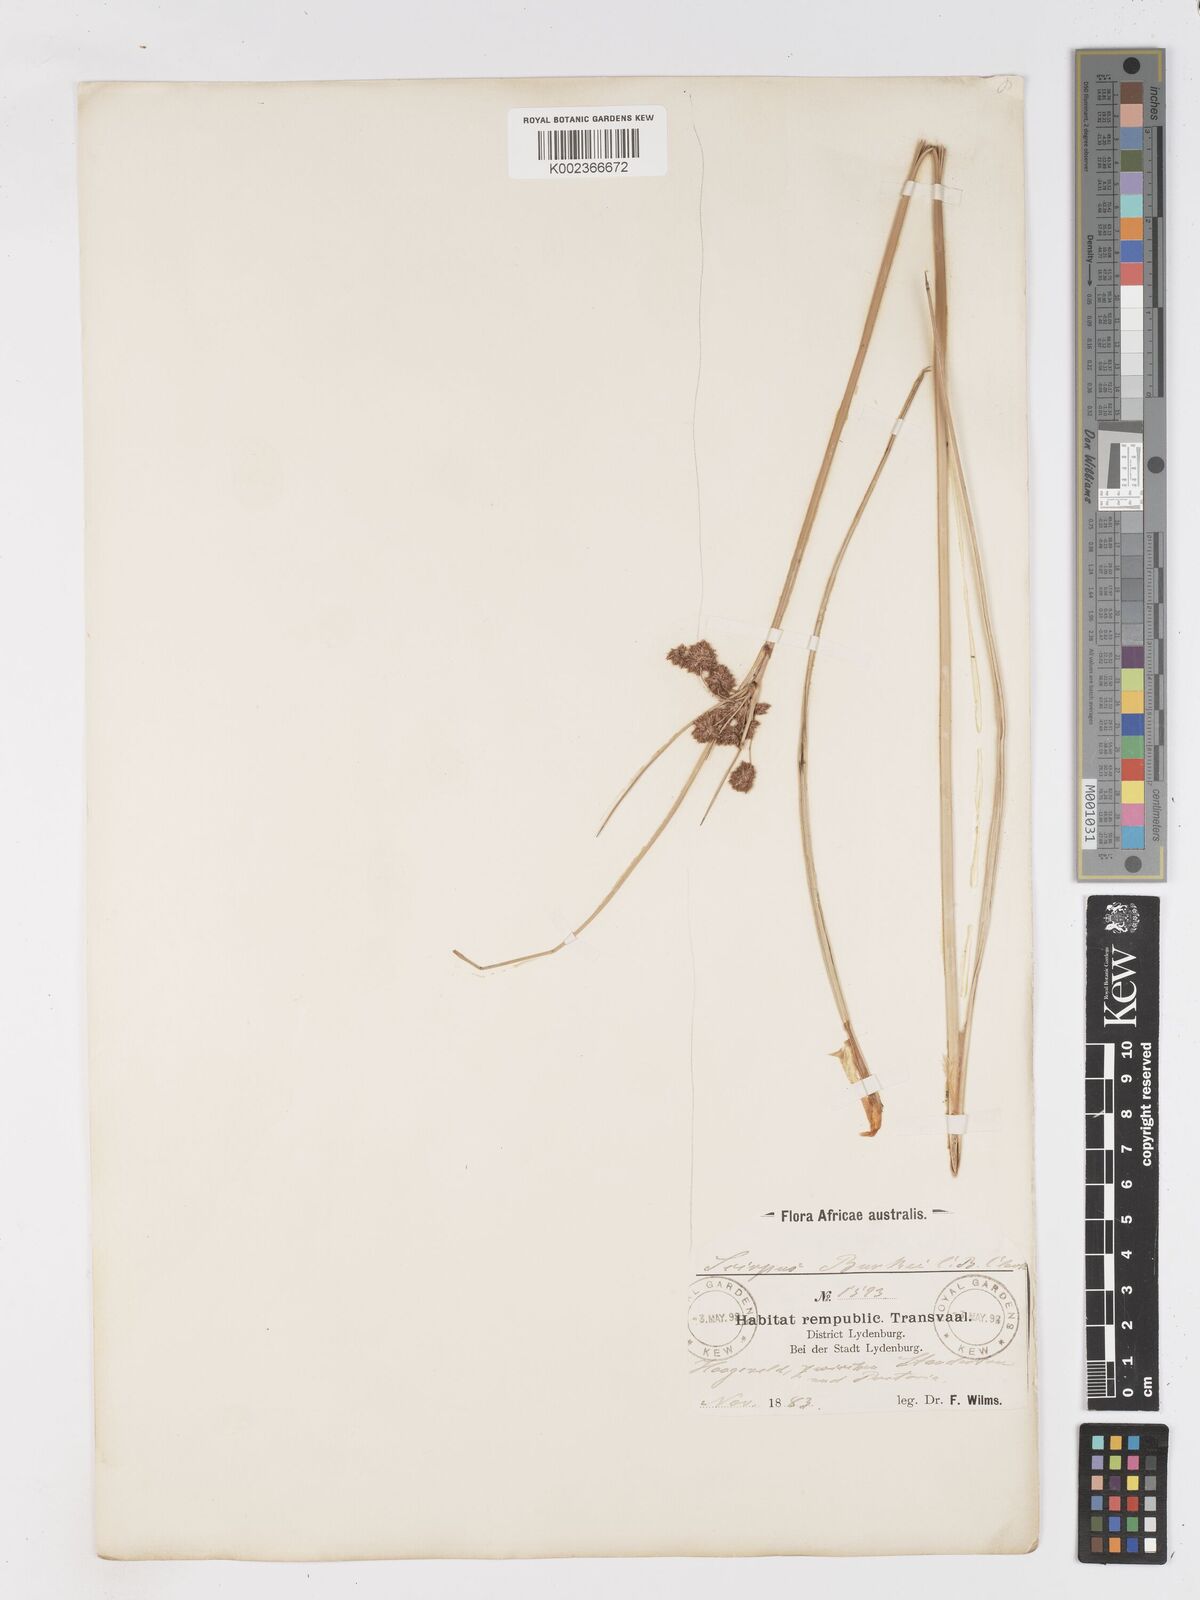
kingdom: Plantae
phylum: Tracheophyta
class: Liliopsida
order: Poales
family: Cyperaceae
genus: Scirpoides
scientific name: Scirpoides burkei
